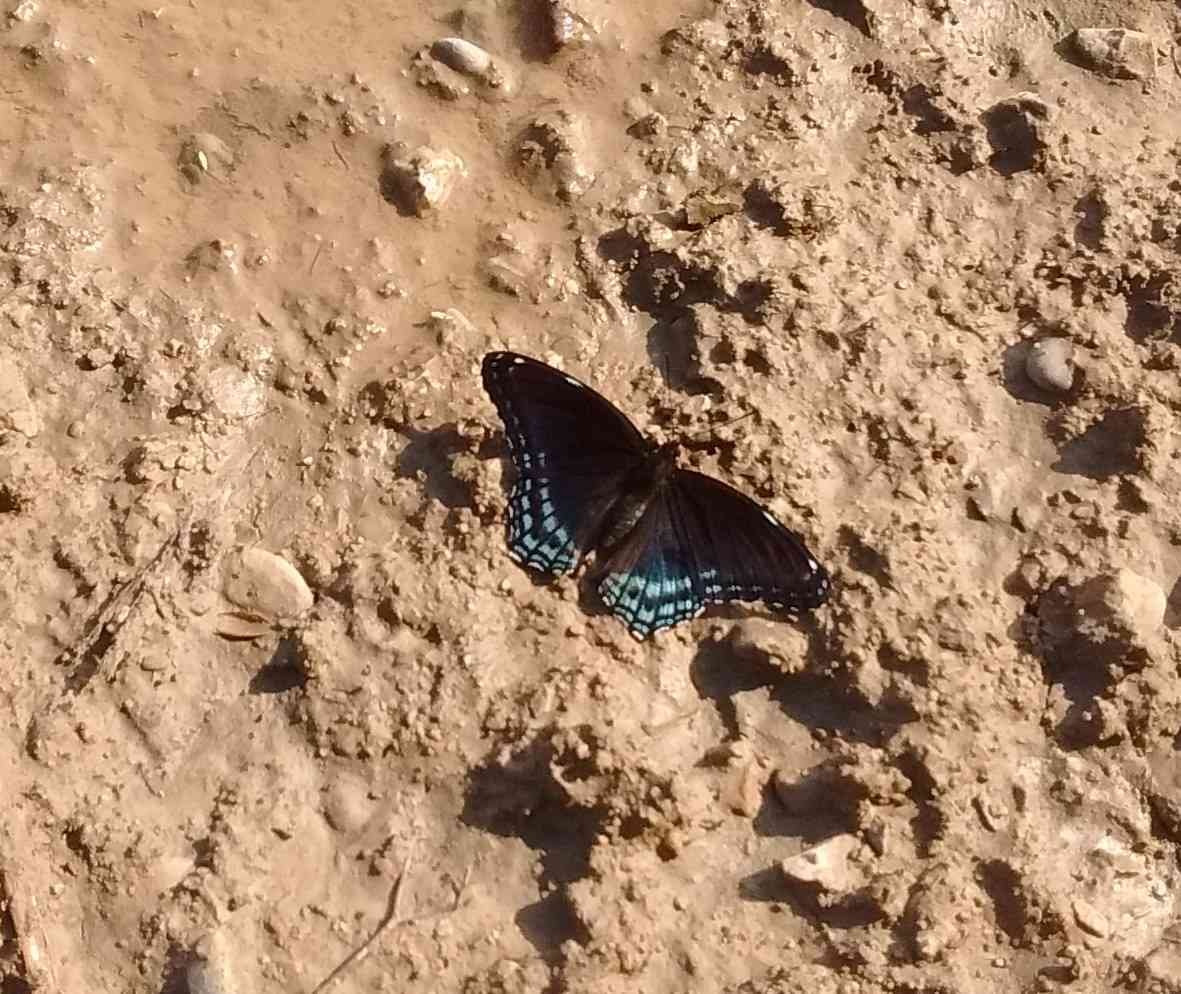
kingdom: Animalia
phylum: Arthropoda
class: Insecta
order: Lepidoptera
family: Nymphalidae
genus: Limenitis
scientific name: Limenitis astyanax
